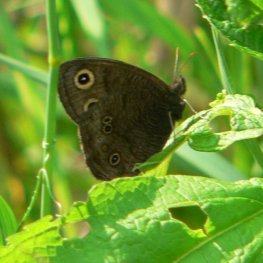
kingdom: Animalia
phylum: Arthropoda
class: Insecta
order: Lepidoptera
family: Nymphalidae
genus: Cercyonis
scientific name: Cercyonis pegala
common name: Common Wood-Nymph
